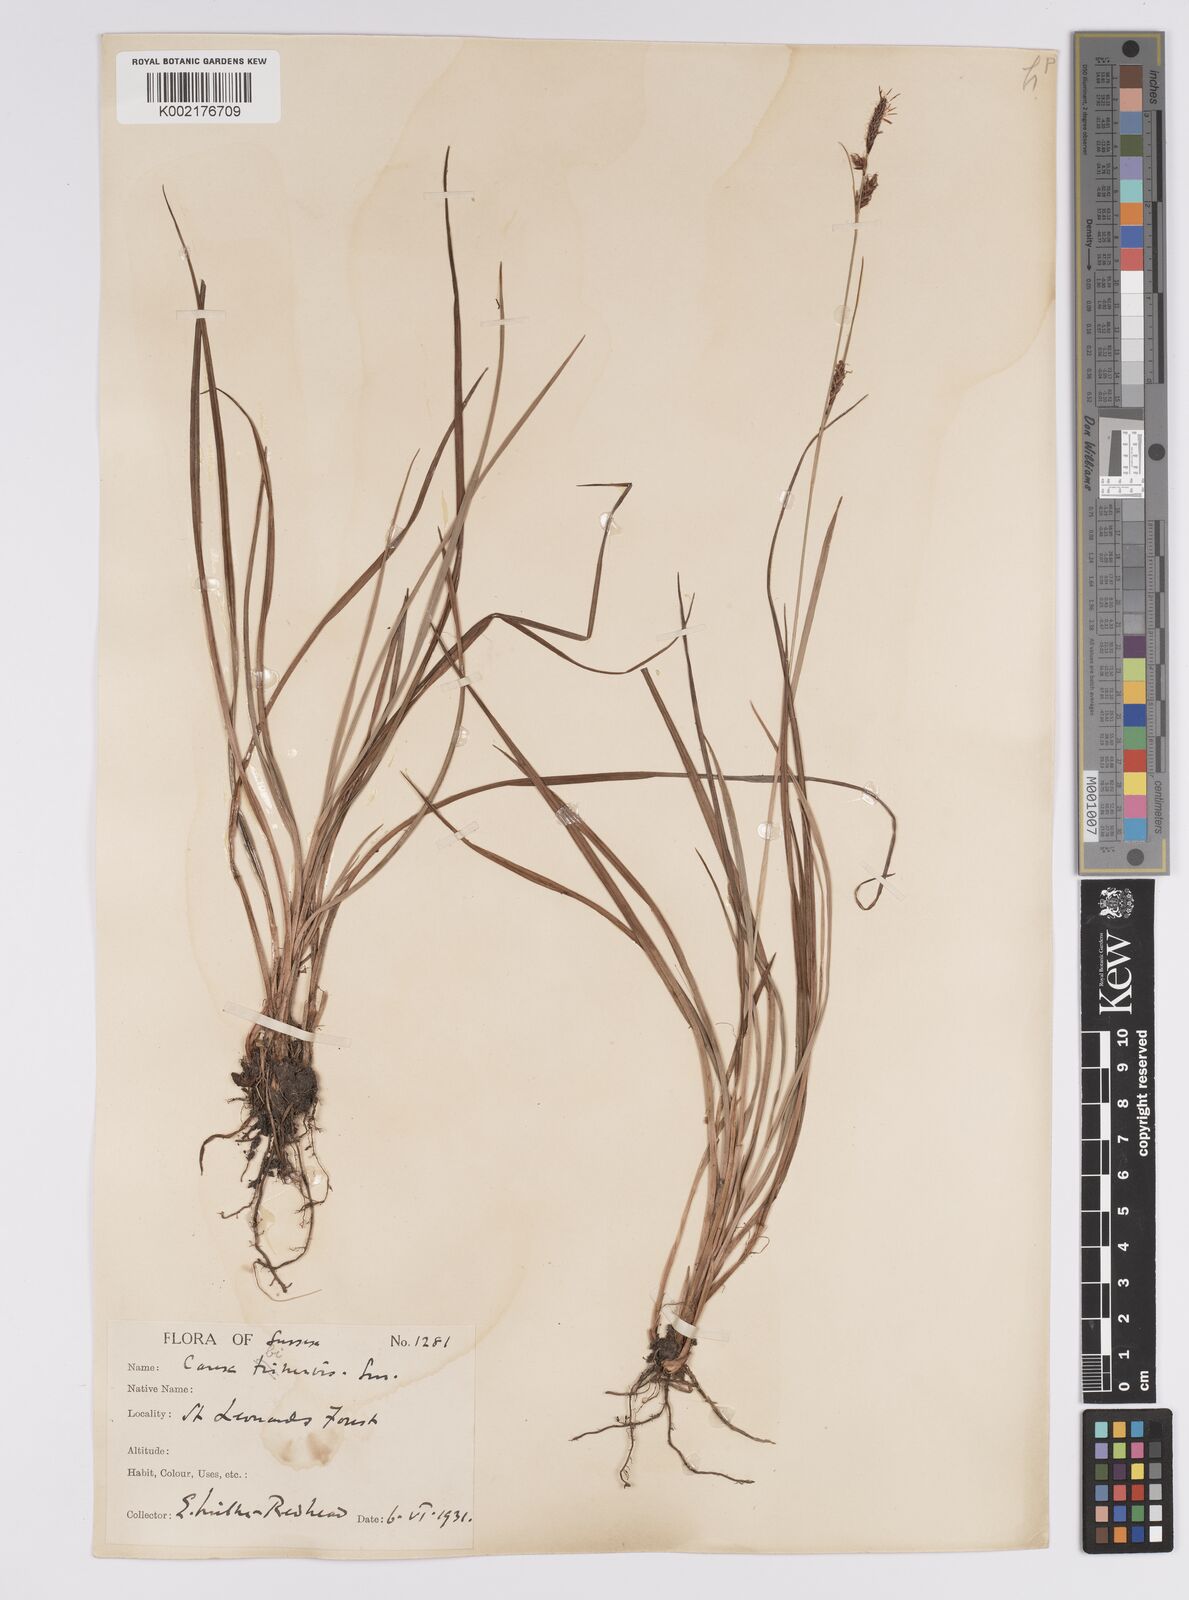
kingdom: Plantae
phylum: Tracheophyta
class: Liliopsida
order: Poales
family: Cyperaceae
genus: Carex
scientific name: Carex binervis
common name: Green-ribbed sedge
